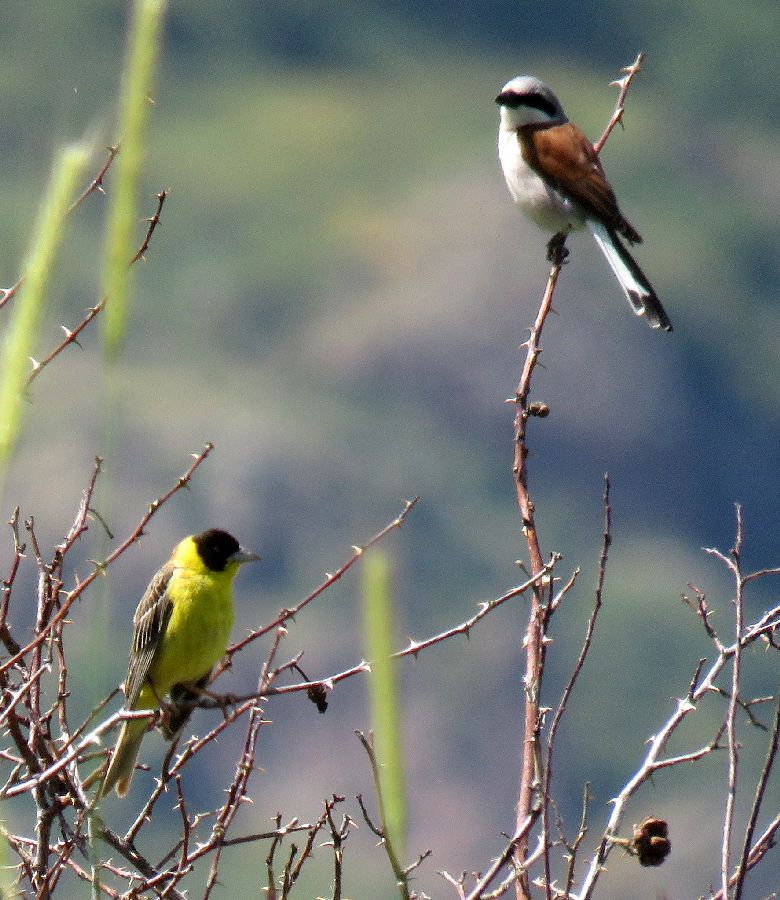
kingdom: Animalia
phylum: Chordata
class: Aves
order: Passeriformes
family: Emberizidae
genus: Emberiza
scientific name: Emberiza melanocephala
